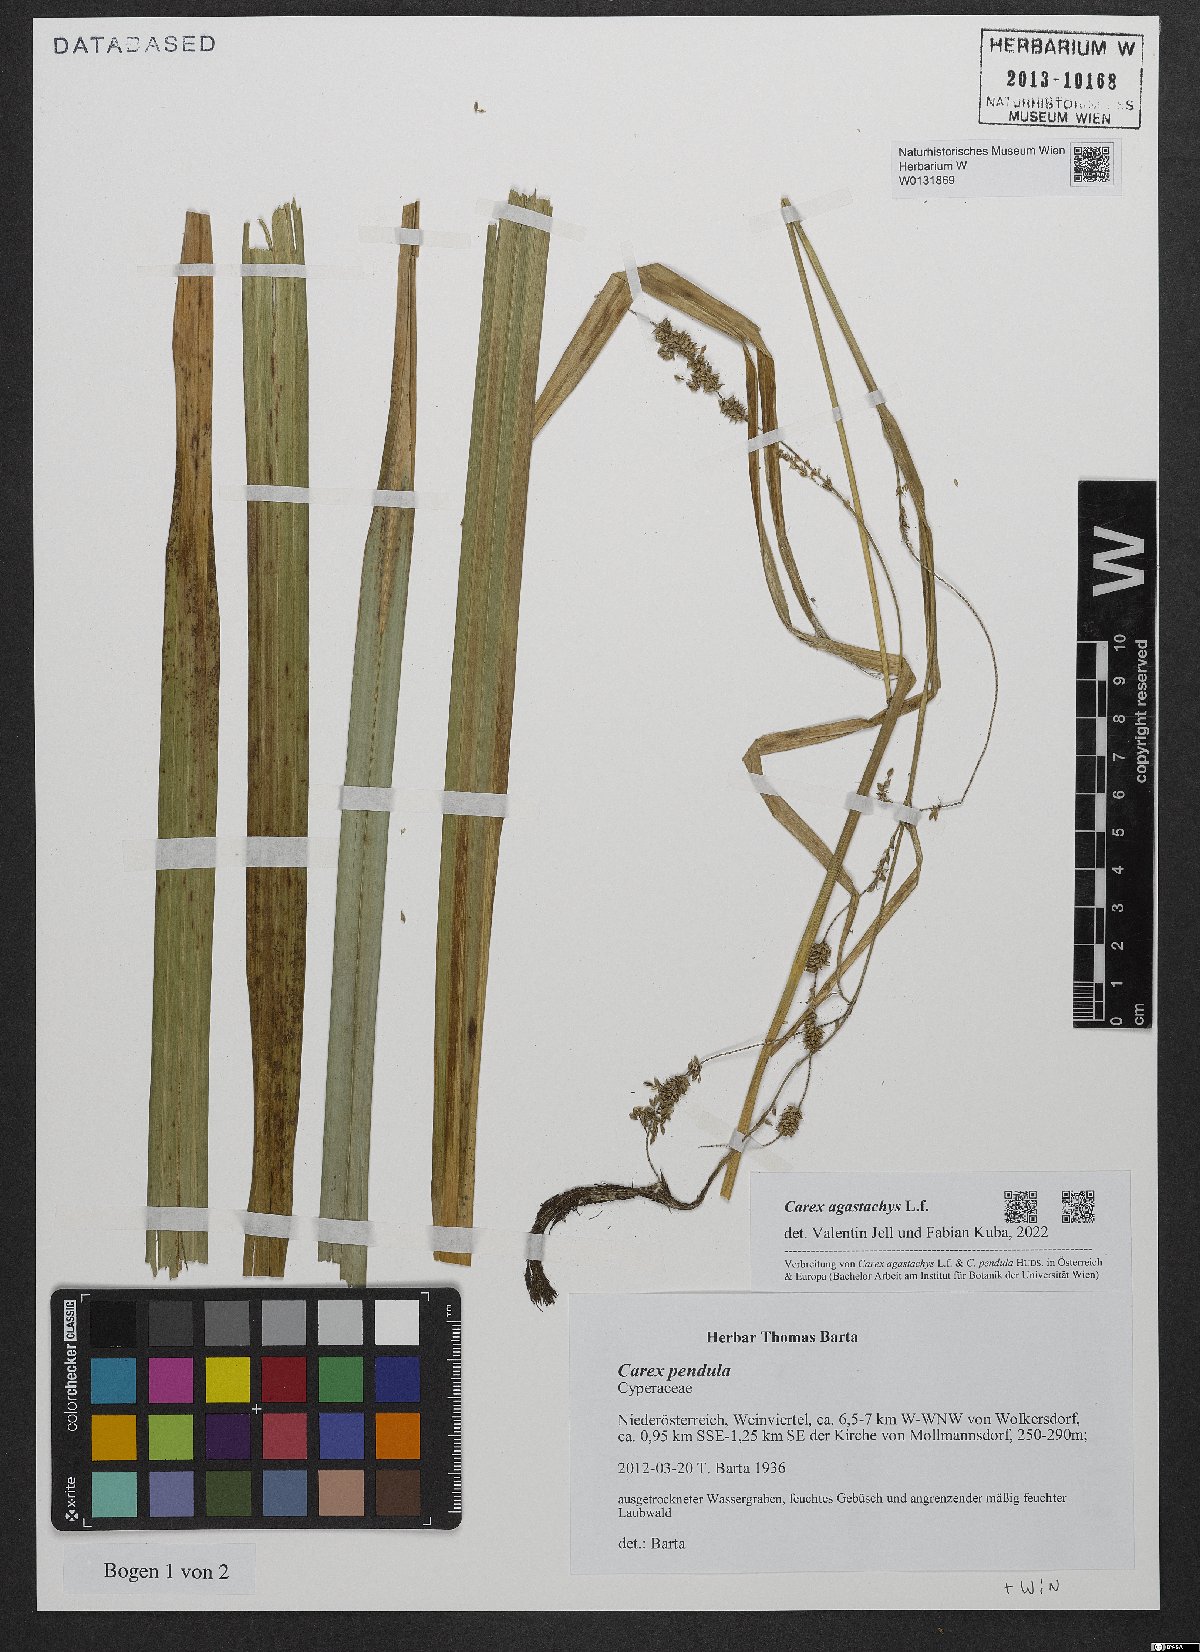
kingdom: Plantae
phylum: Tracheophyta
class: Liliopsida
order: Poales
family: Cyperaceae
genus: Carex
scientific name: Carex agastachys
